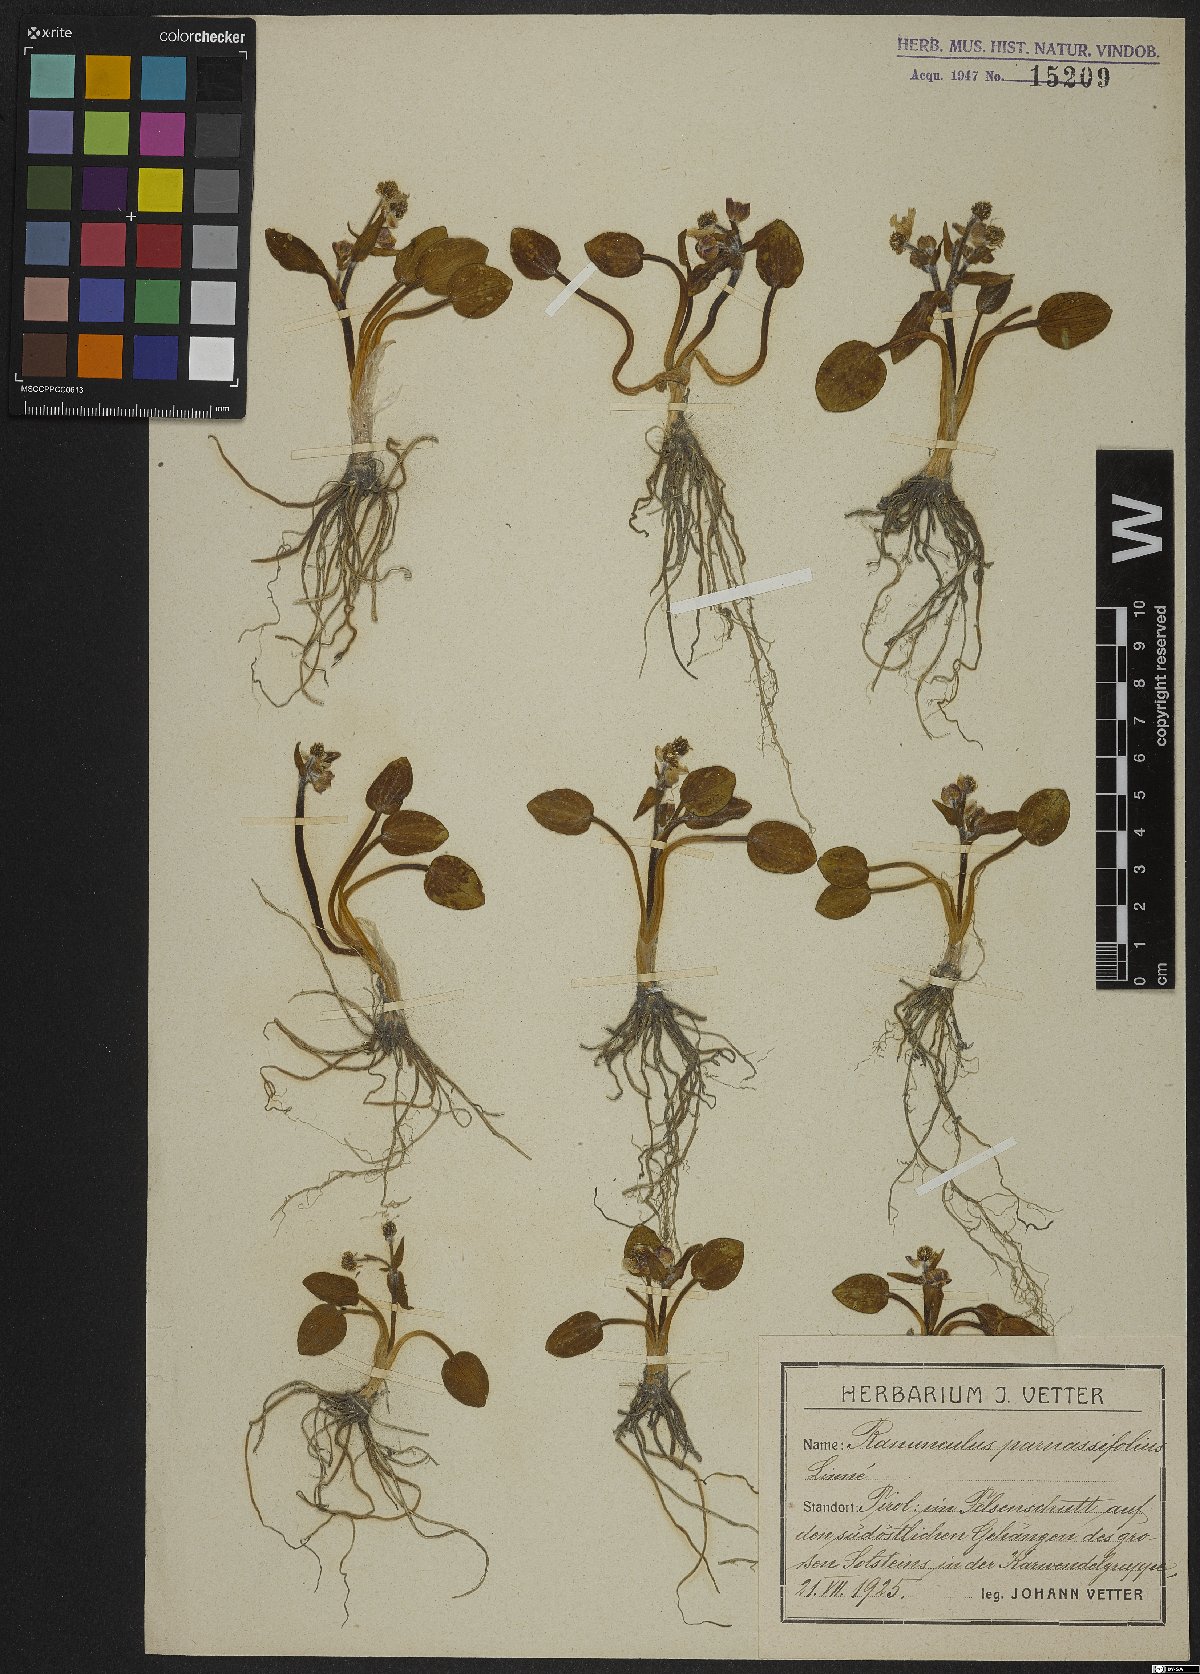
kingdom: Plantae
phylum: Tracheophyta
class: Magnoliopsida
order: Ranunculales
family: Ranunculaceae
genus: Ranunculus
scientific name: Ranunculus parnassiifolius
